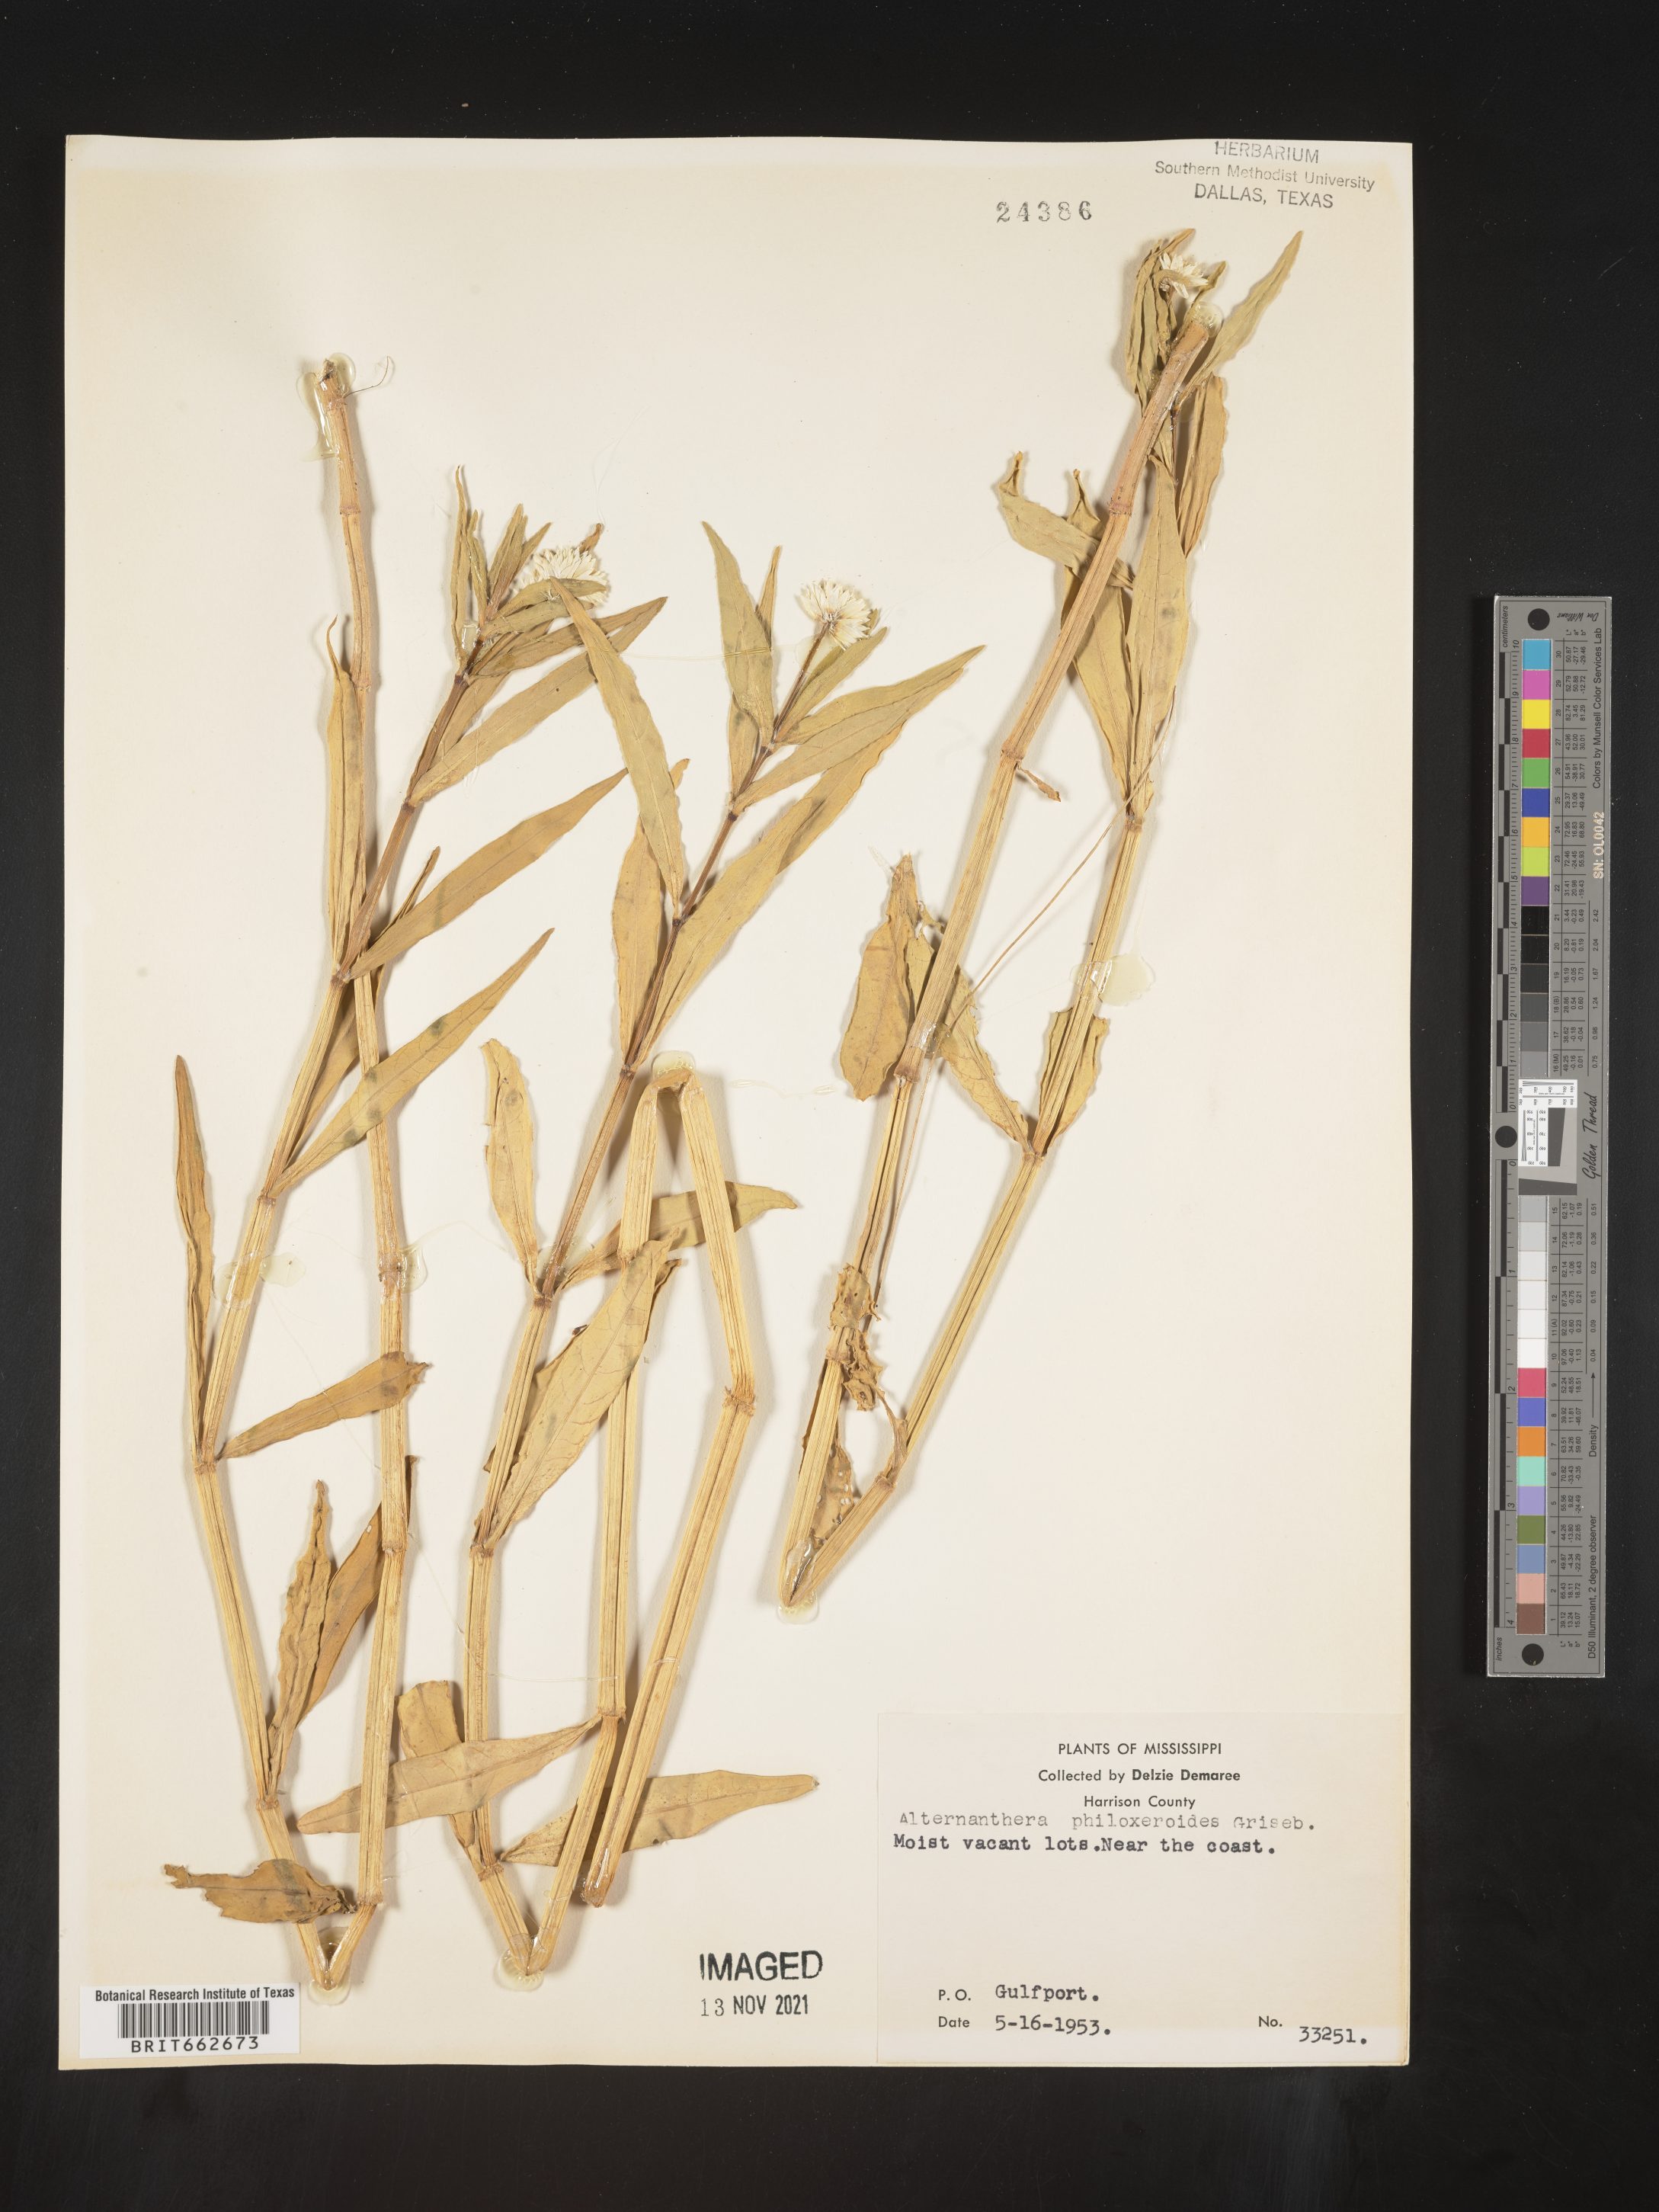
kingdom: Plantae
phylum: Tracheophyta
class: Magnoliopsida
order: Caryophyllales
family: Amaranthaceae
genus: Alternanthera
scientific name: Alternanthera philoxeroides
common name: Alligatorweed
